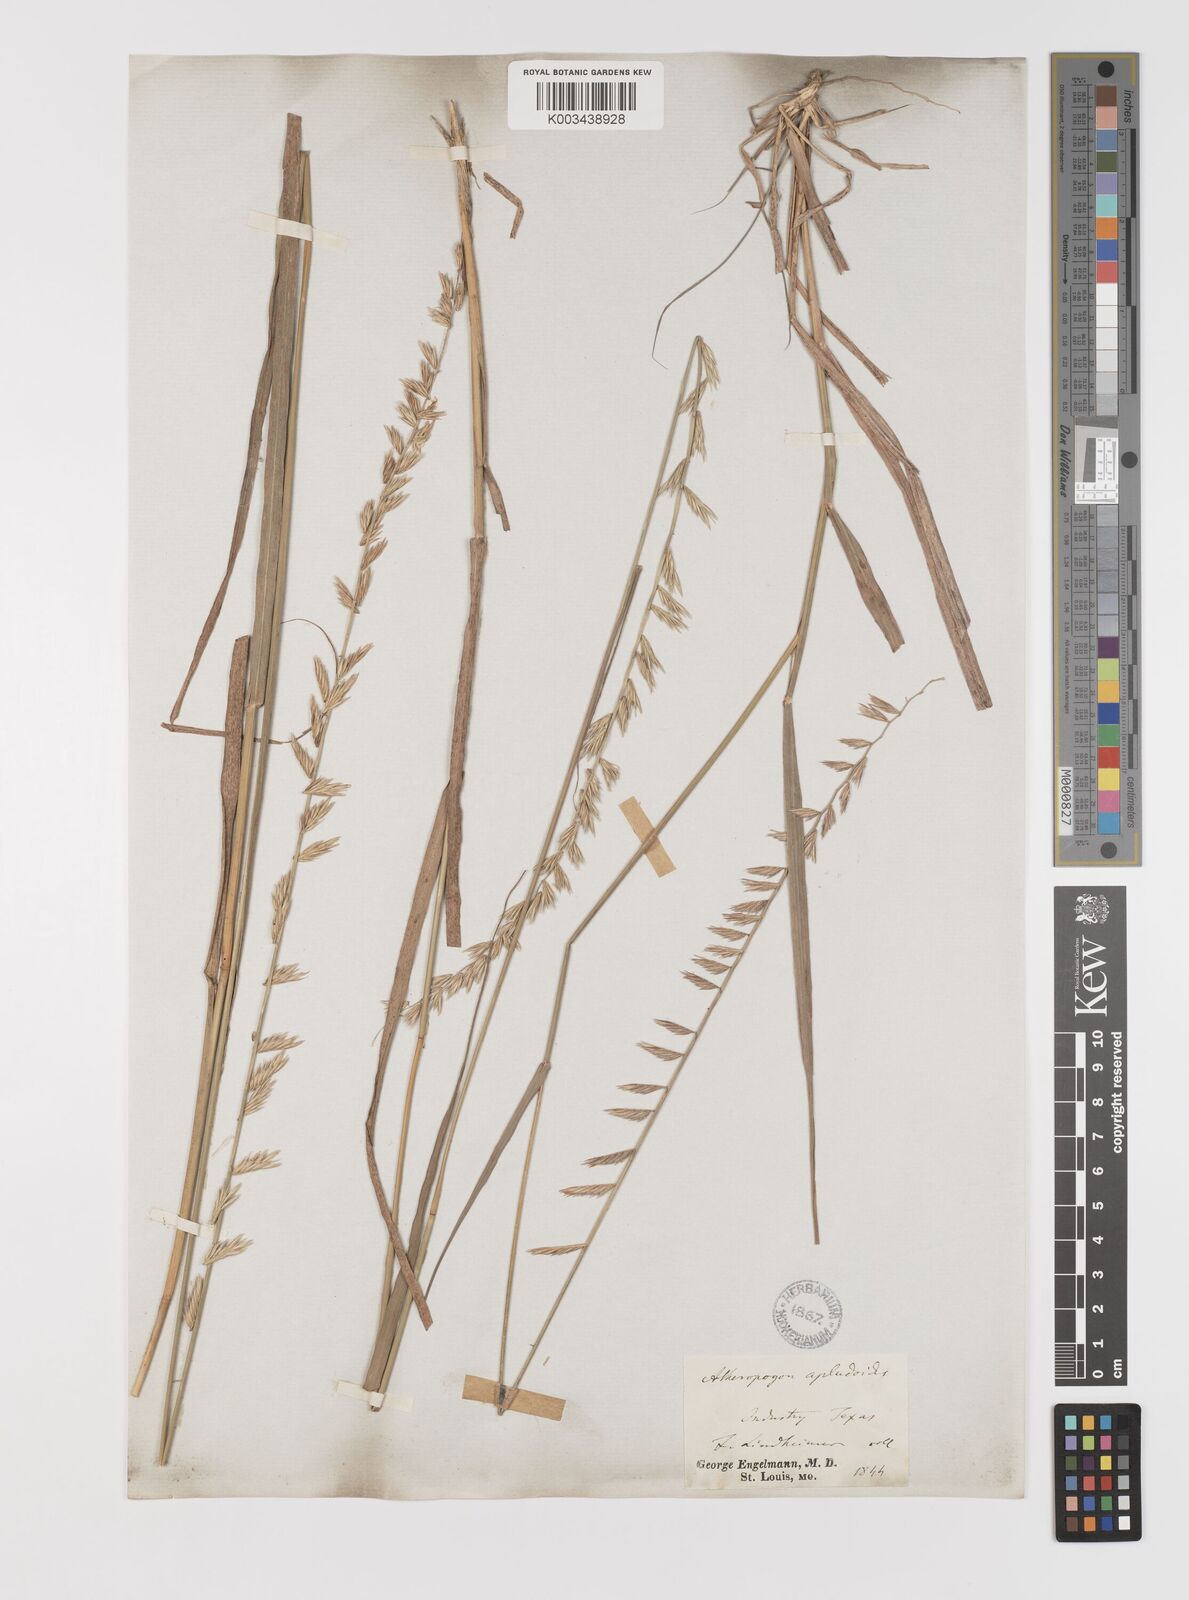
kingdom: Plantae
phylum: Tracheophyta
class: Liliopsida
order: Poales
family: Poaceae
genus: Bouteloua
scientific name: Bouteloua curtipendula
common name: Side-oats grama
